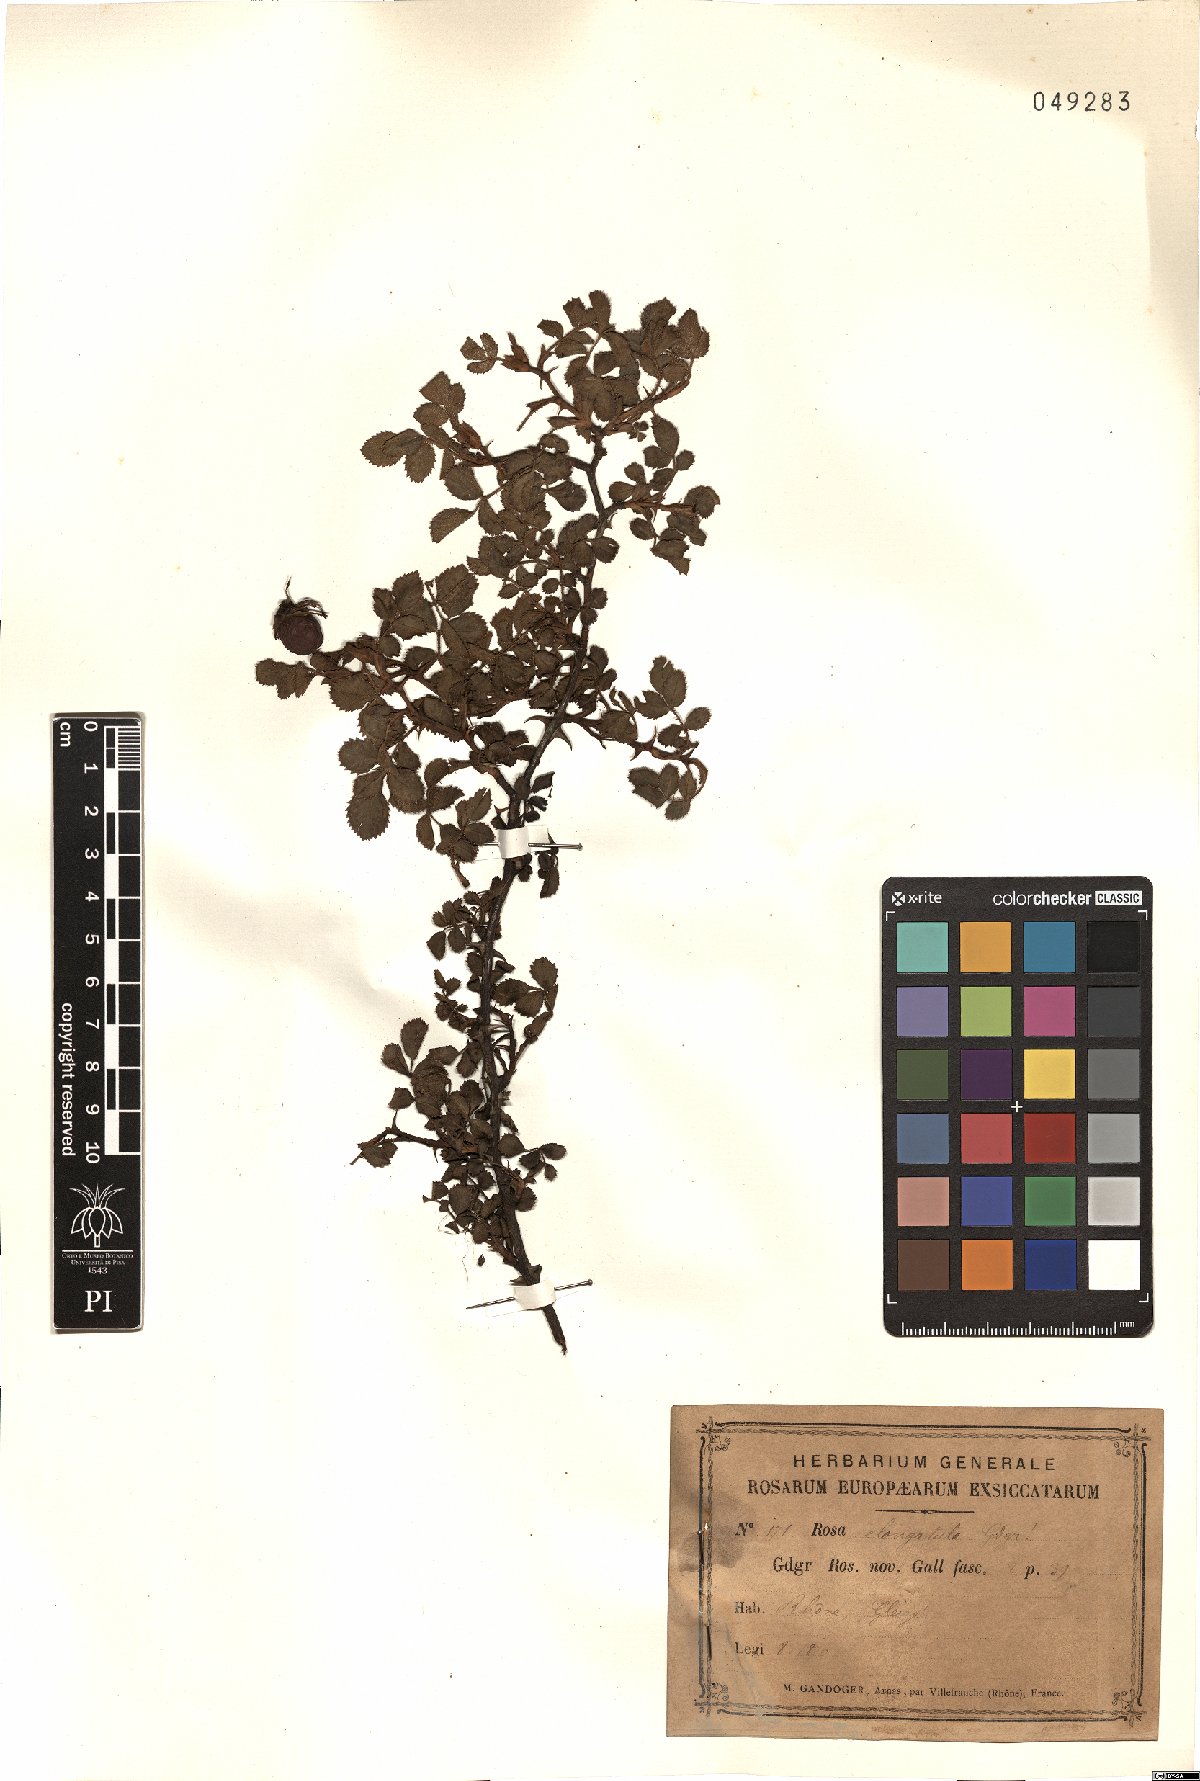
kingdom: Plantae
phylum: Tracheophyta
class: Magnoliopsida
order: Rosales
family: Rosaceae
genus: Rosa
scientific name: Rosa elongatula
